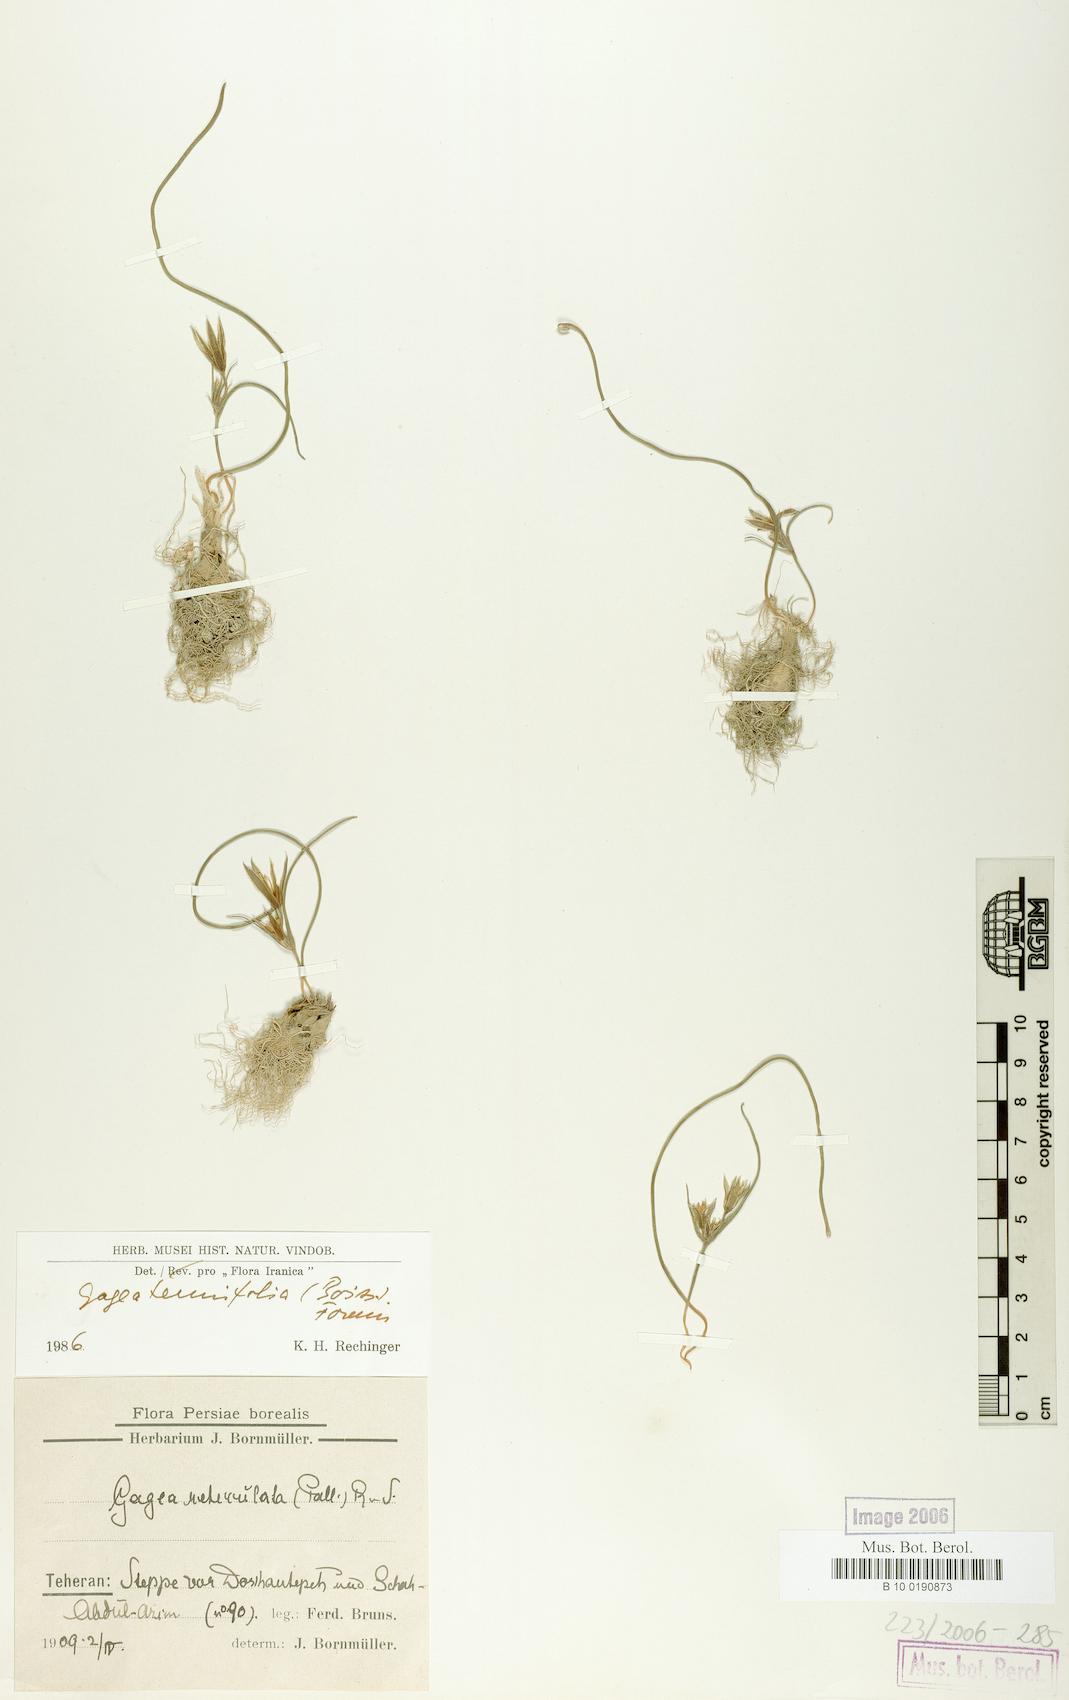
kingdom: Plantae
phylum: Tracheophyta
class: Liliopsida
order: Liliales
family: Liliaceae
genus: Gagea
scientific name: Gagea reticulata
